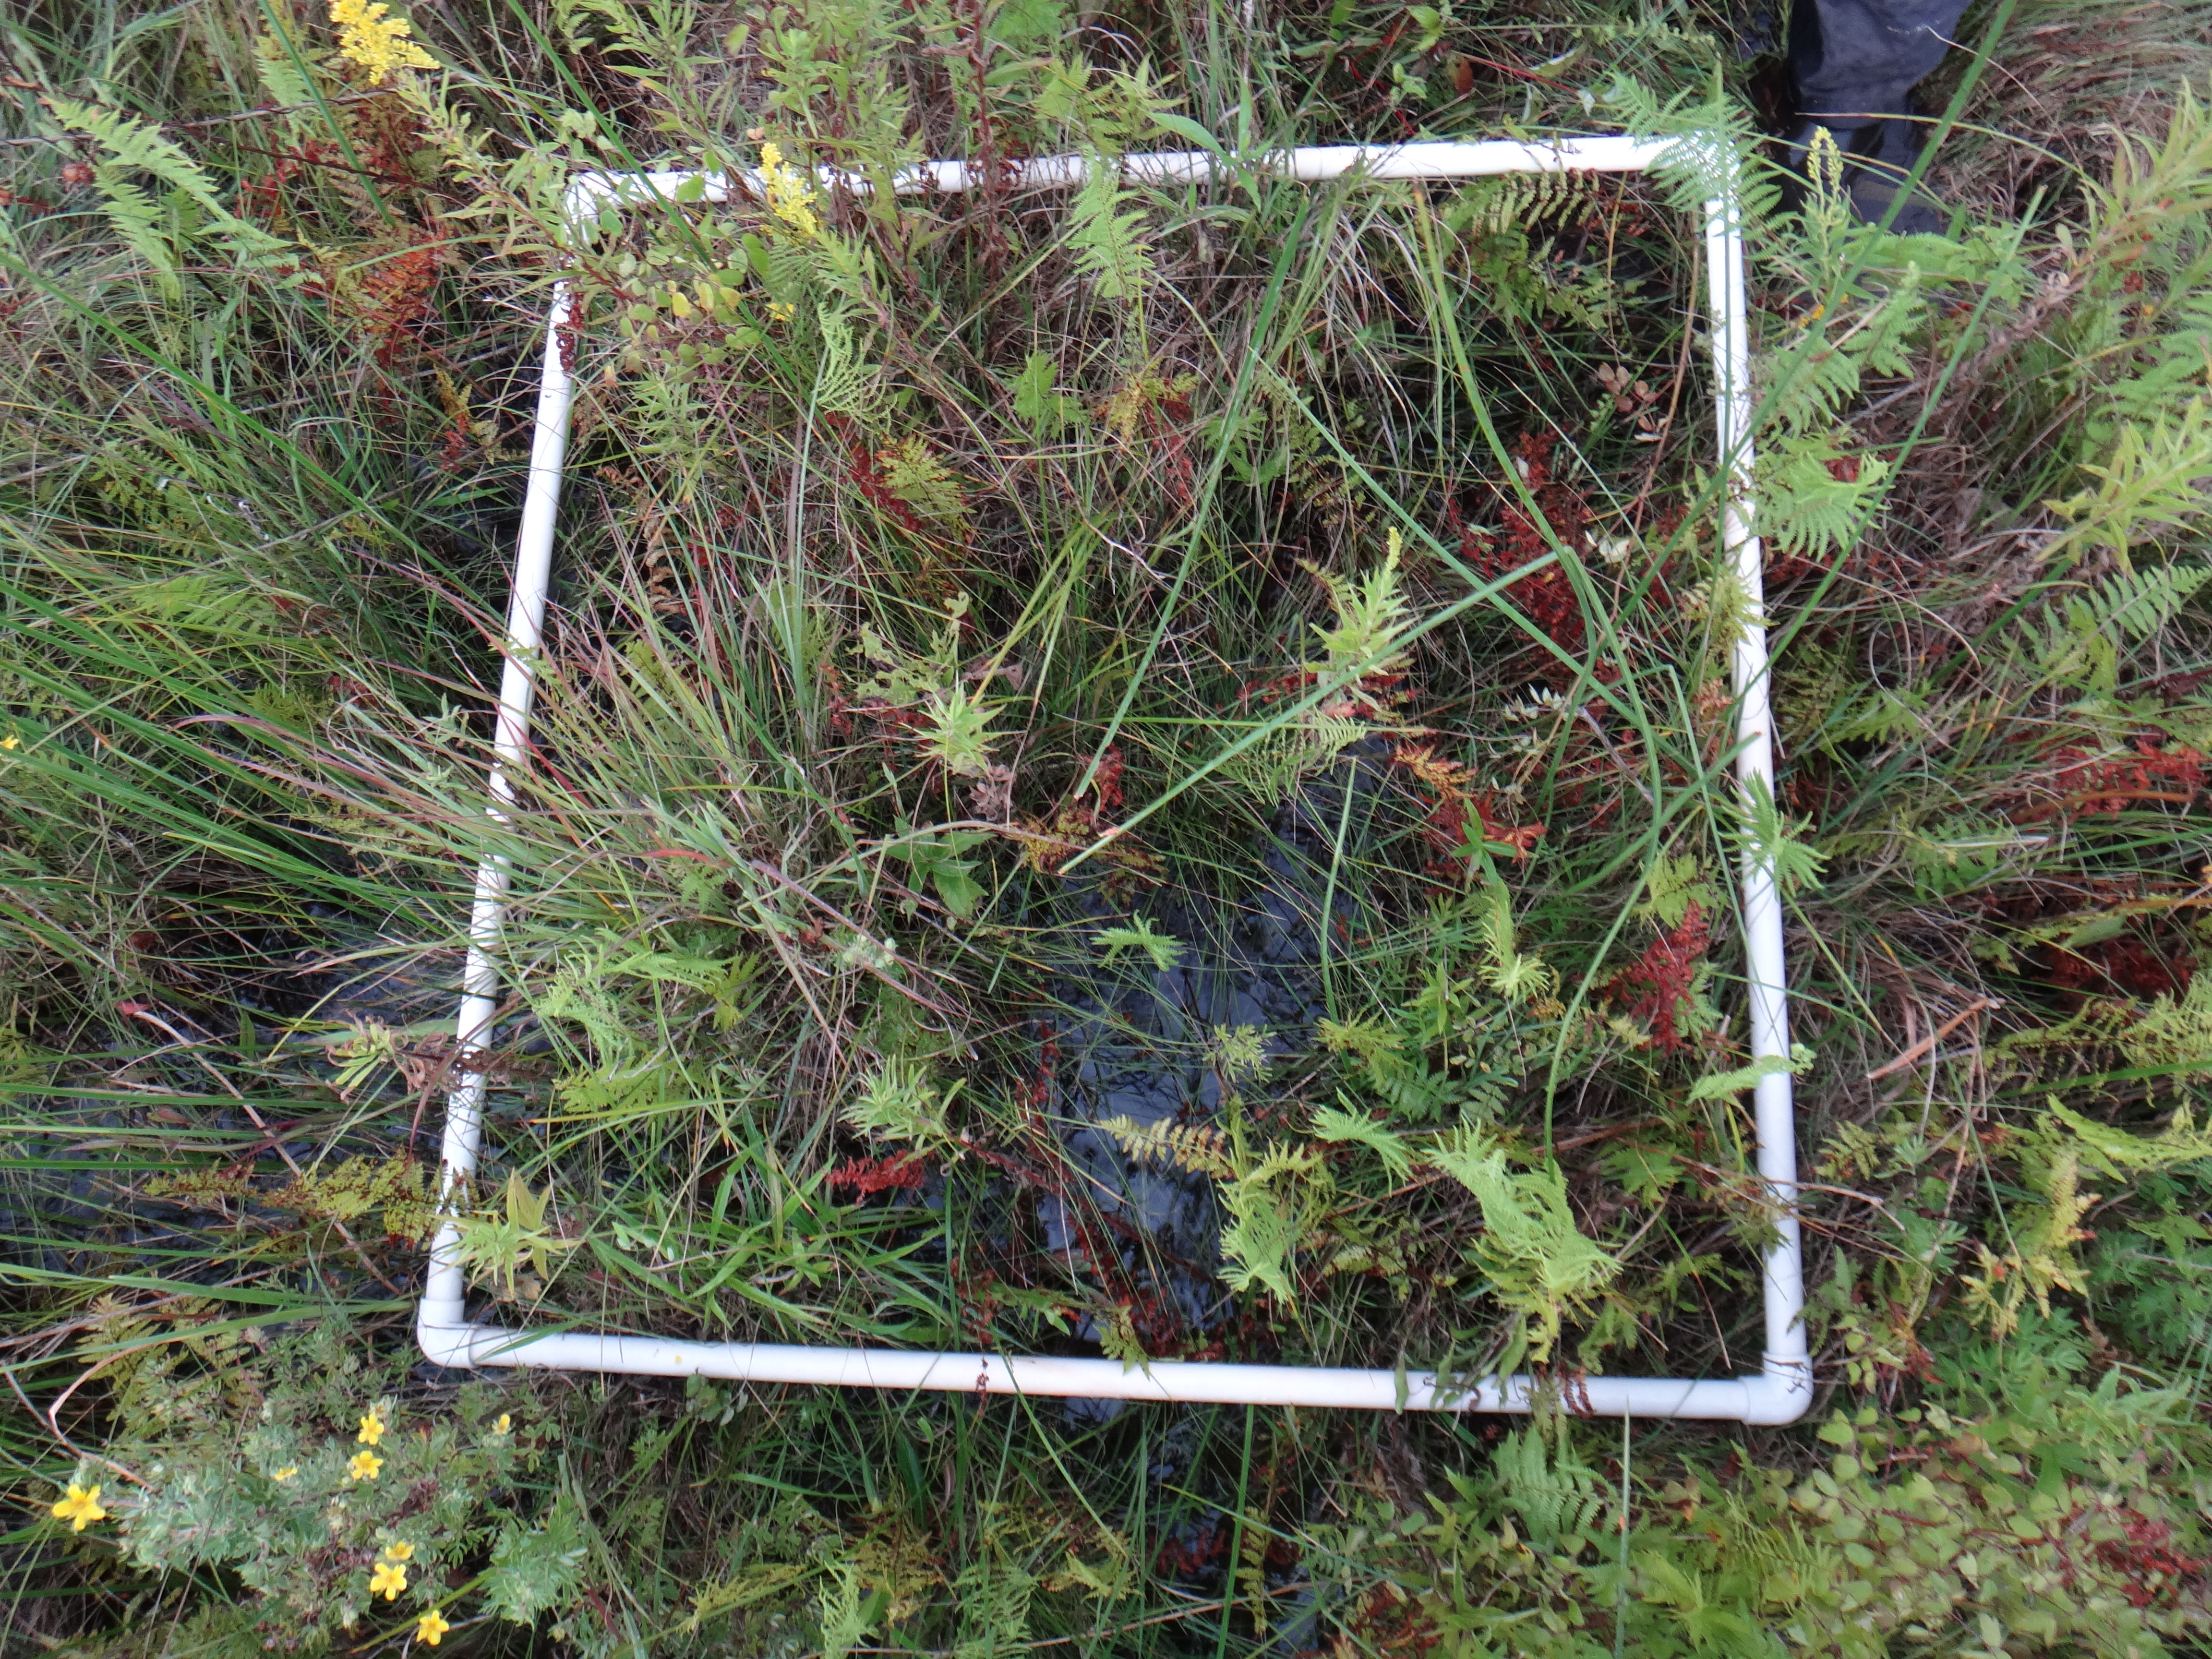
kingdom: Plantae
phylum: Tracheophyta
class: Magnoliopsida
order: Asterales
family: Campanulaceae
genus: Palustricodon
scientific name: Palustricodon aparinoides
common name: Bedstraw bellflower
